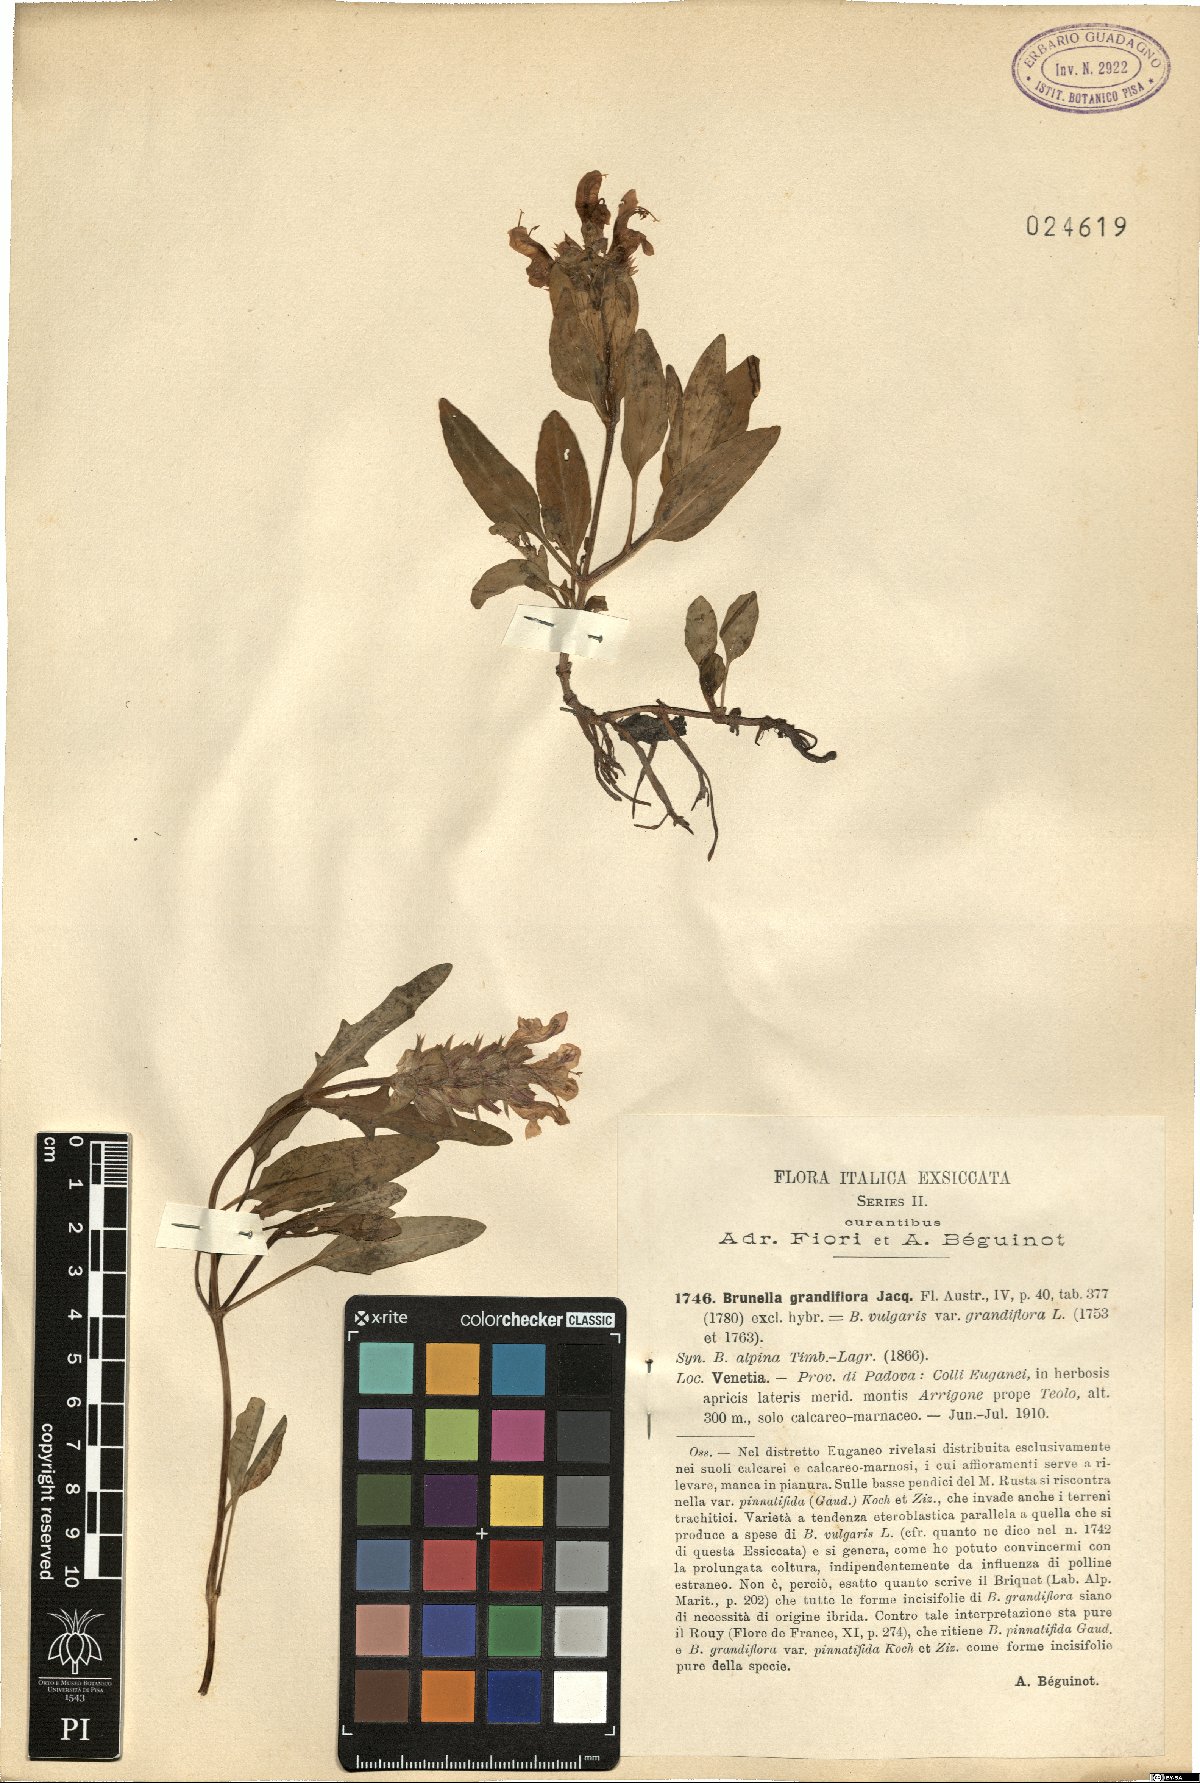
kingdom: Plantae
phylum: Tracheophyta
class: Magnoliopsida
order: Lamiales
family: Lamiaceae
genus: Prunella
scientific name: Prunella grandiflora
